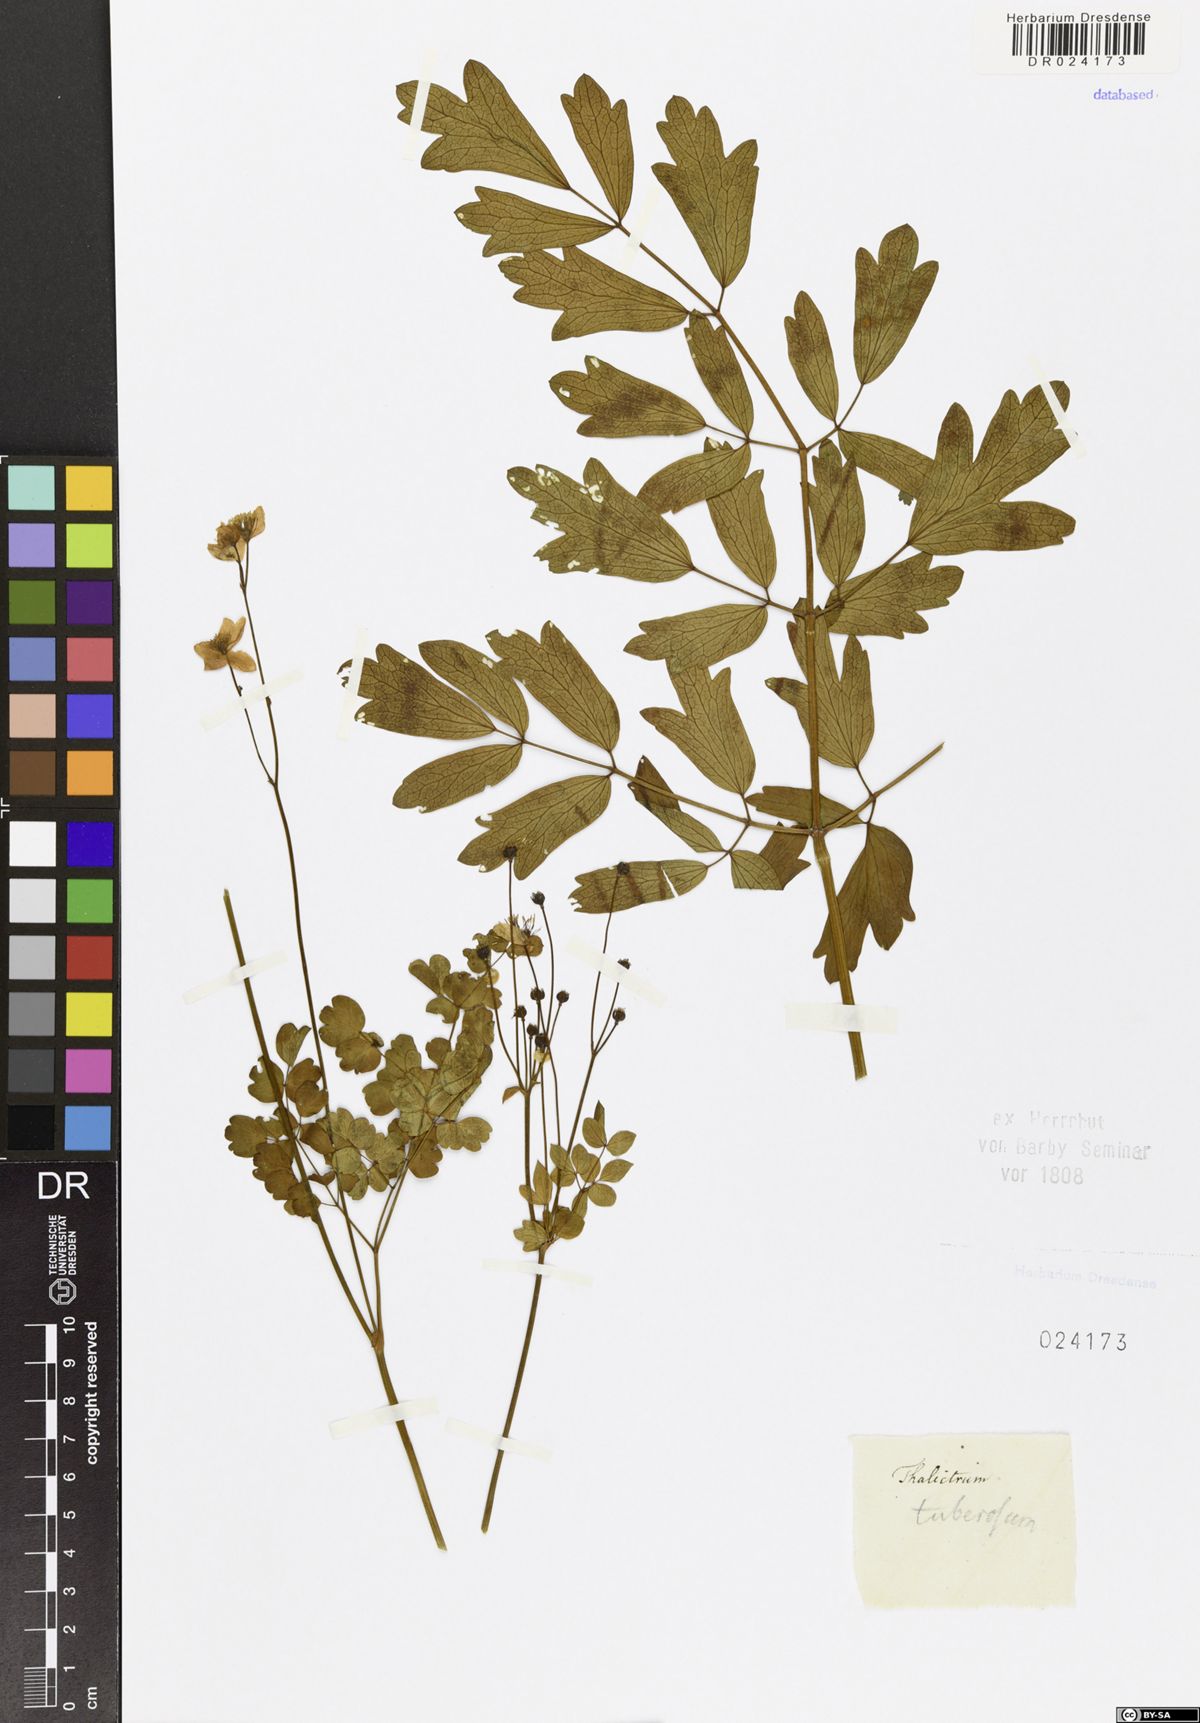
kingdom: Plantae
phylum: Tracheophyta
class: Magnoliopsida
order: Ranunculales
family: Ranunculaceae
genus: Thalictrum
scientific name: Thalictrum tuberosum
